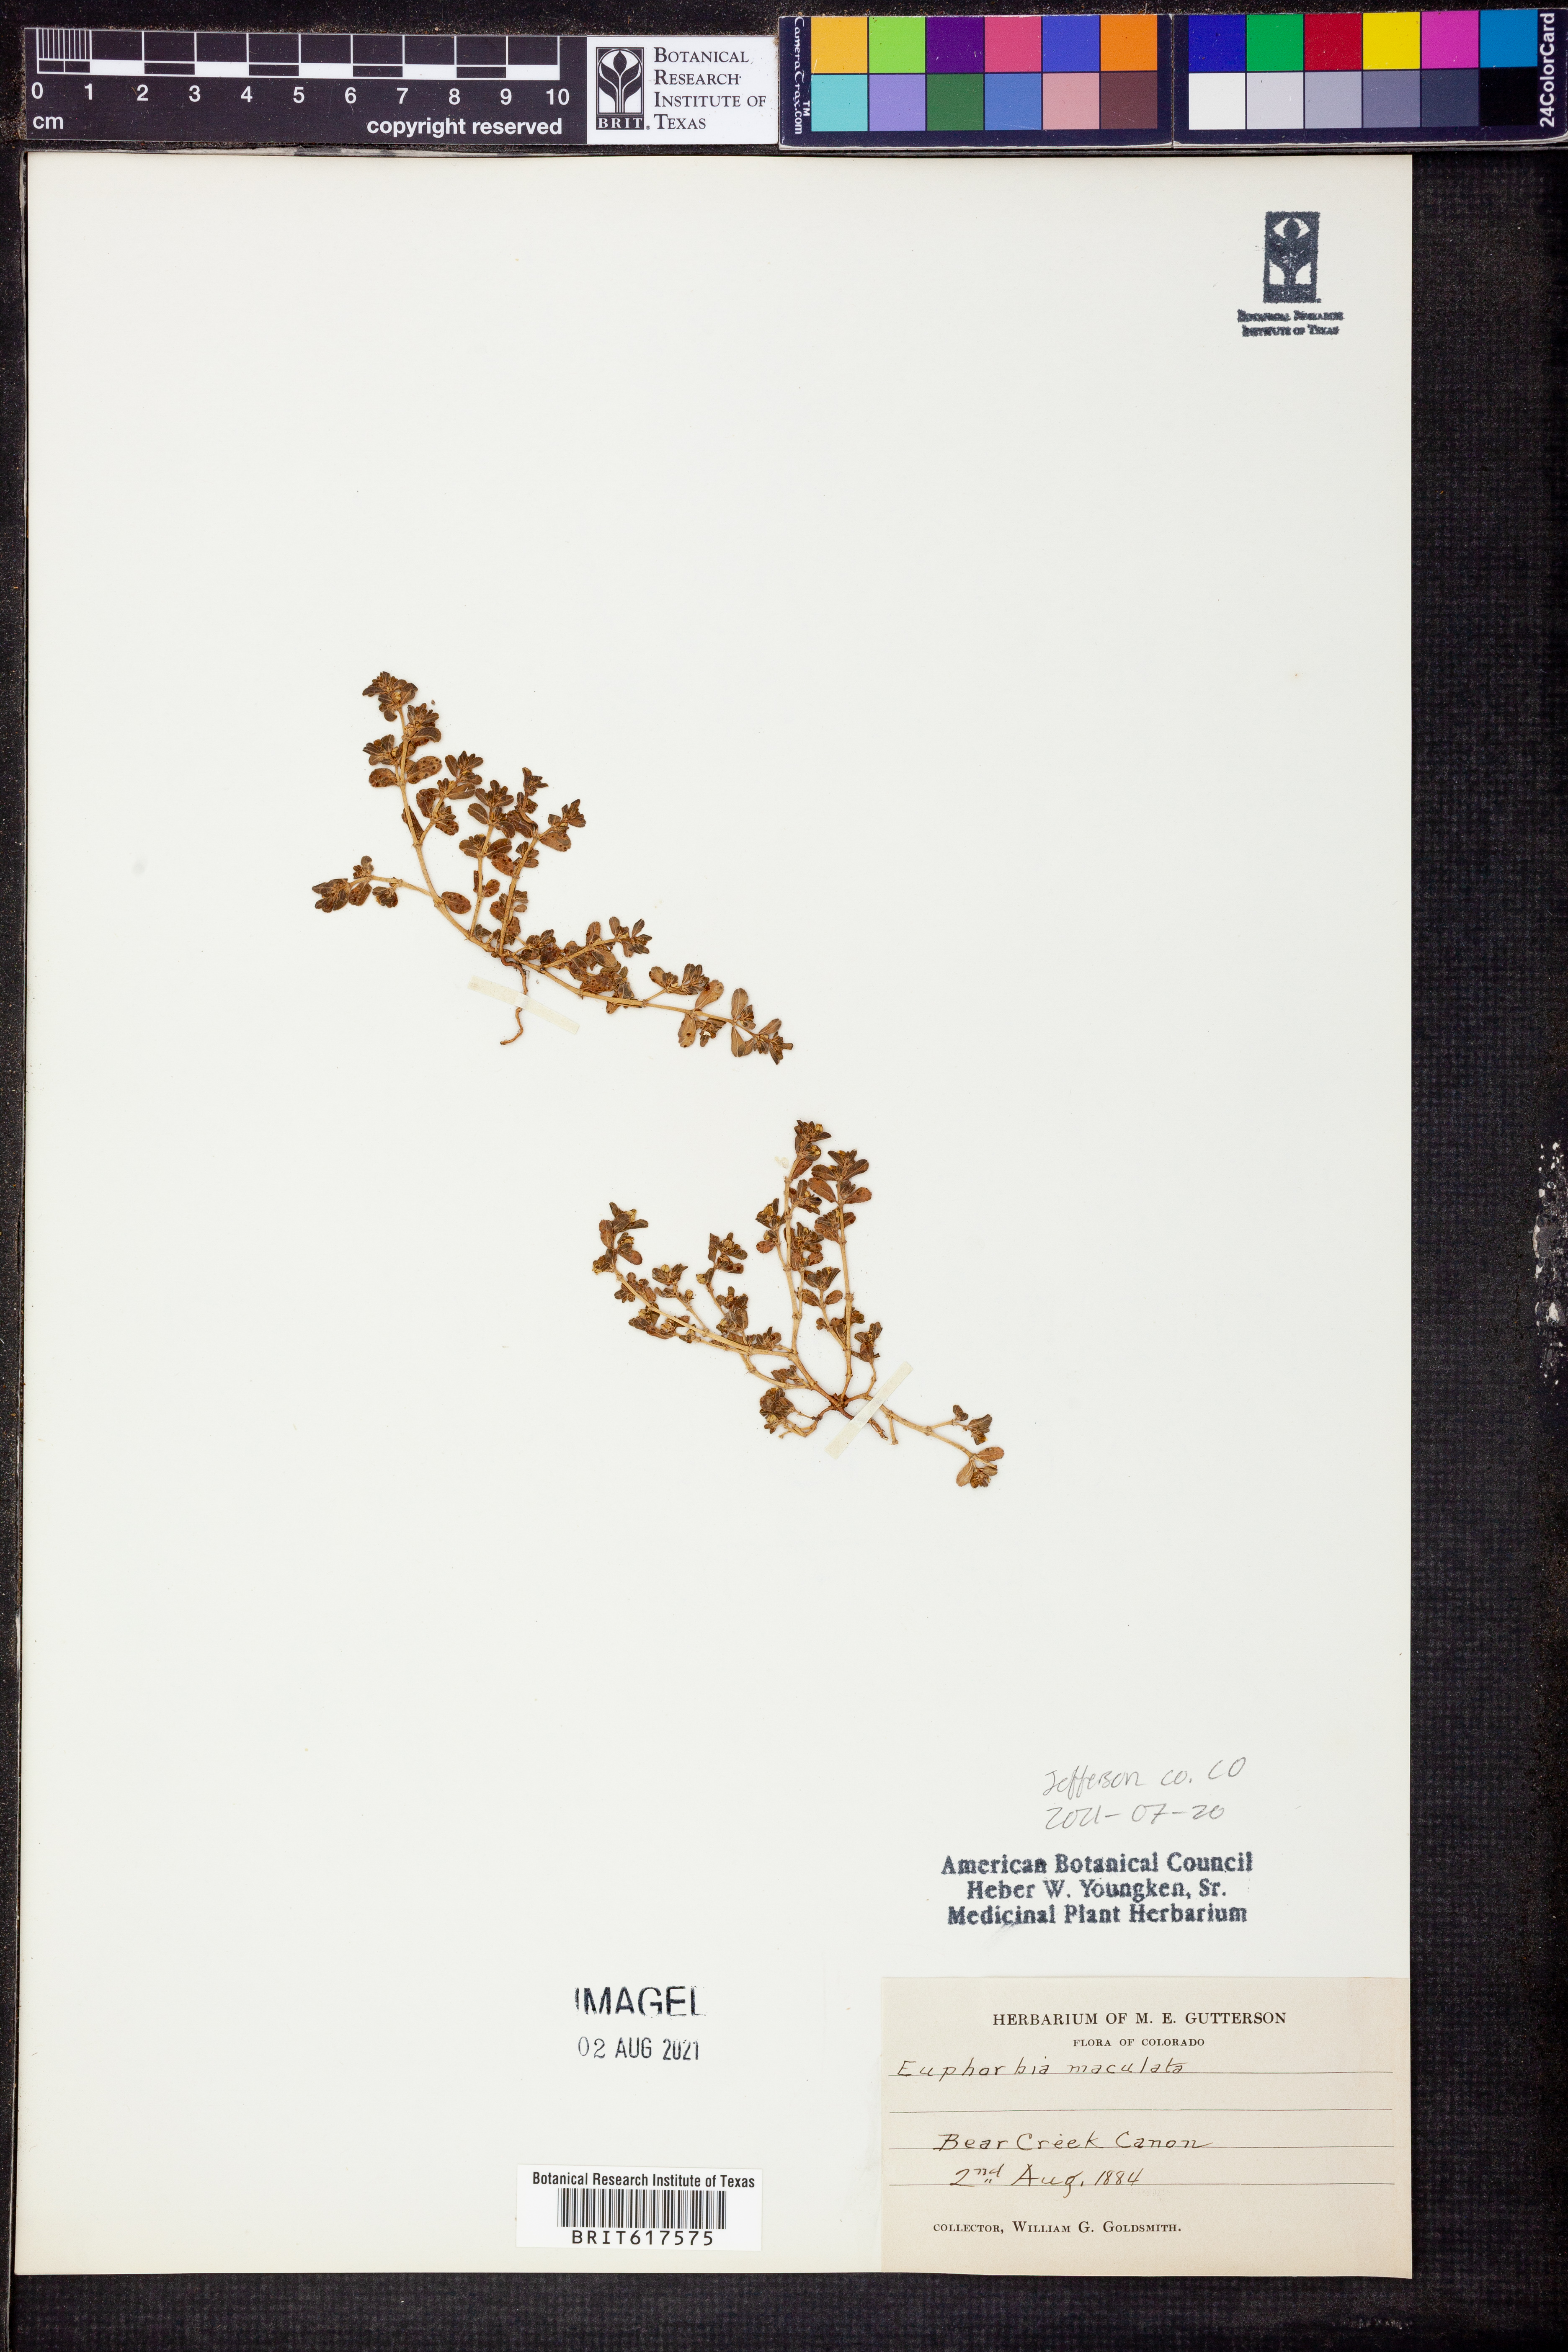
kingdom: Plantae
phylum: Tracheophyta
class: Magnoliopsida
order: Malpighiales
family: Euphorbiaceae
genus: Euphorbia
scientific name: Euphorbia maculata
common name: Spotted spurge
